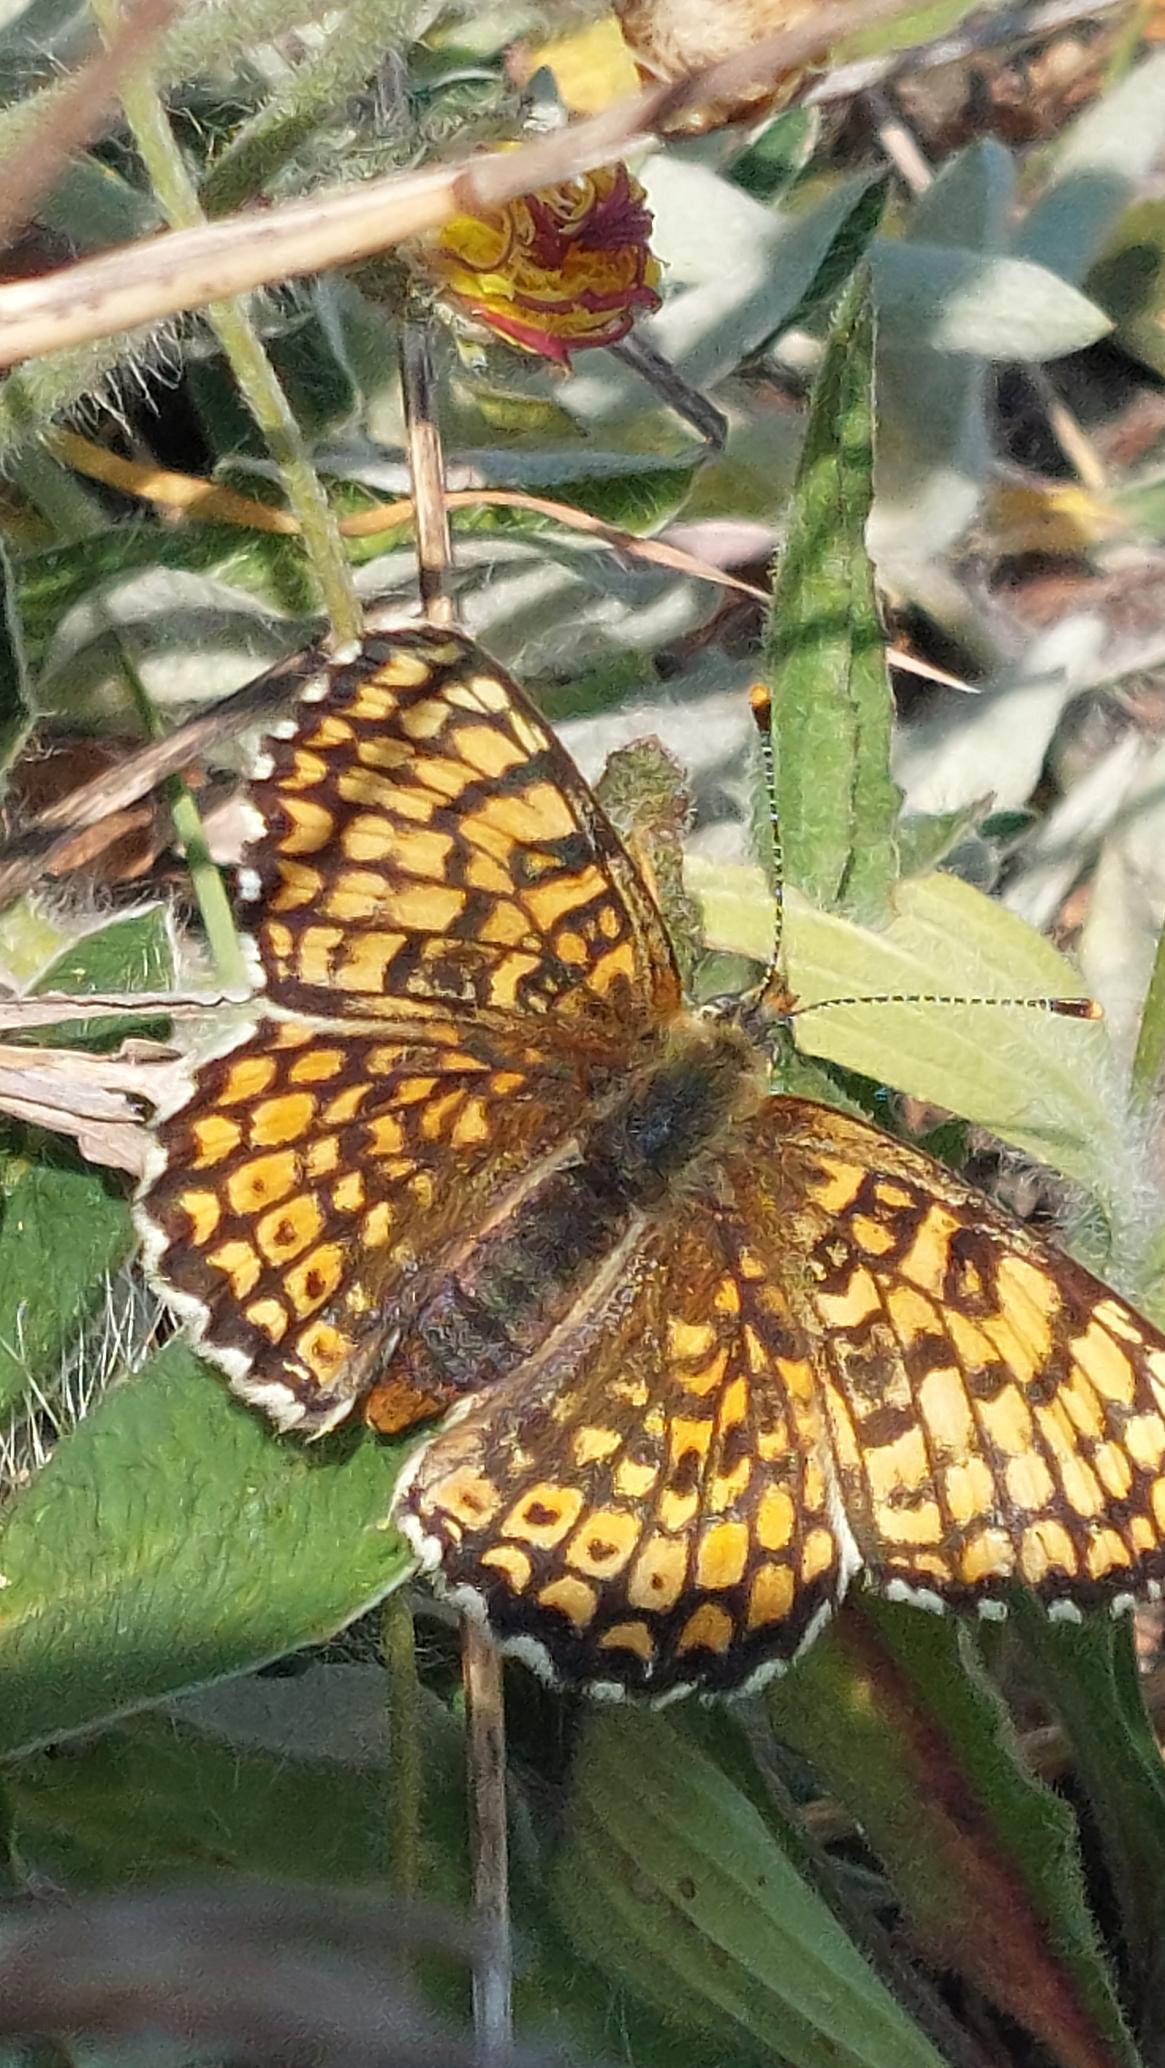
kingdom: Animalia
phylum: Arthropoda
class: Insecta
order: Lepidoptera
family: Nymphalidae
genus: Melitaea
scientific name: Melitaea cinxia
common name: Okkergul pletvinge
